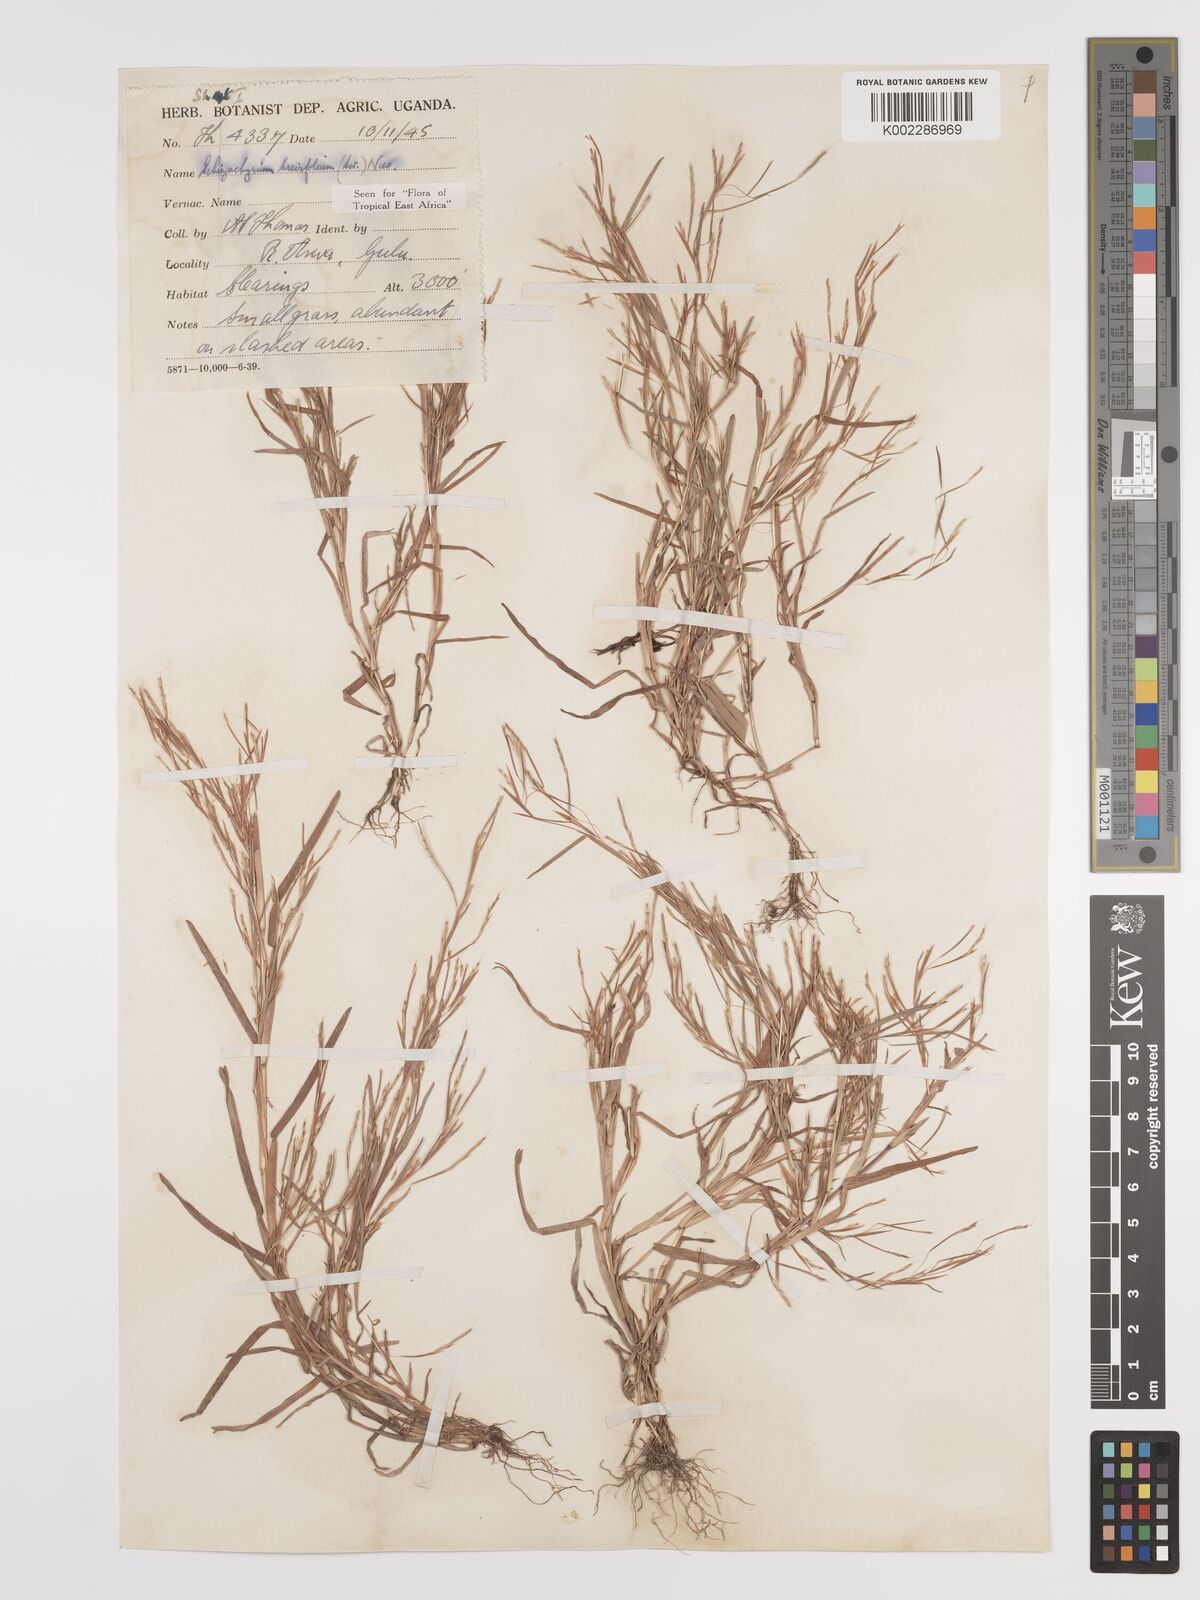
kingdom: Plantae
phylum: Tracheophyta
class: Liliopsida
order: Poales
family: Poaceae
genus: Schizachyrium
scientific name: Schizachyrium brevifolium
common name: Serillo dulce
